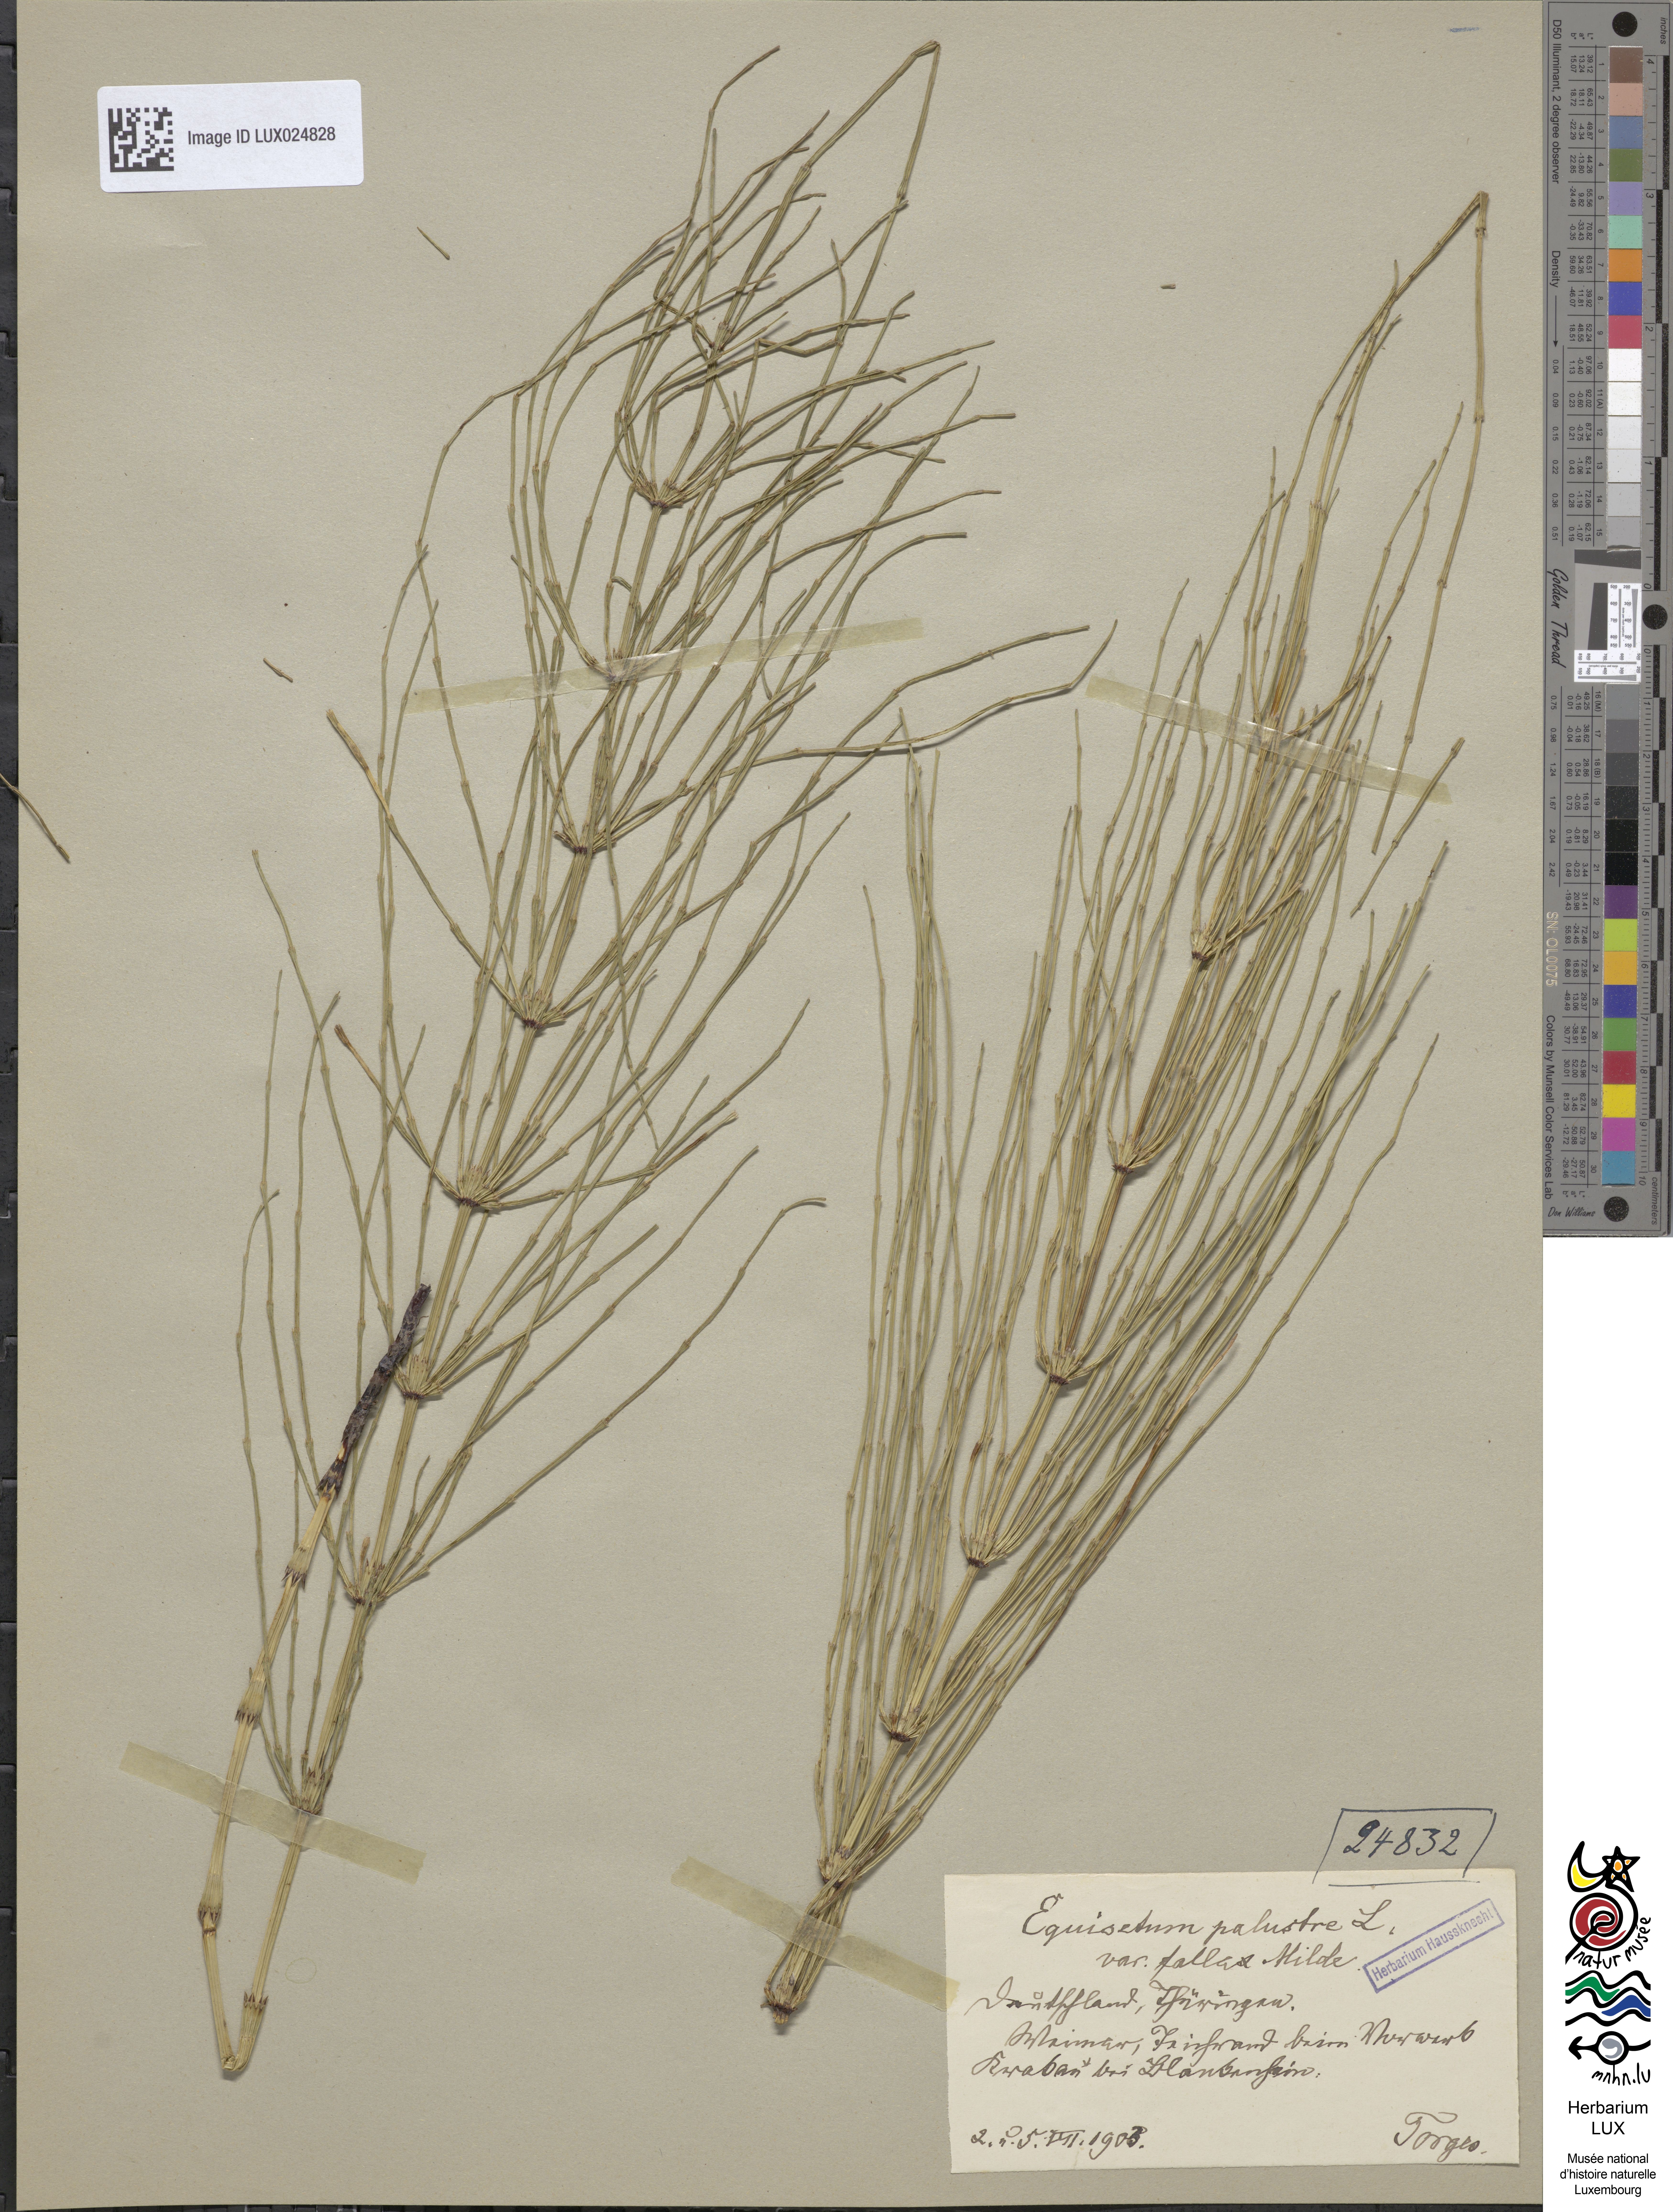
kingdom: Plantae
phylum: Tracheophyta
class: Polypodiopsida
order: Equisetales
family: Equisetaceae
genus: Equisetum
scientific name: Equisetum palustre
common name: Marsh horsetail
